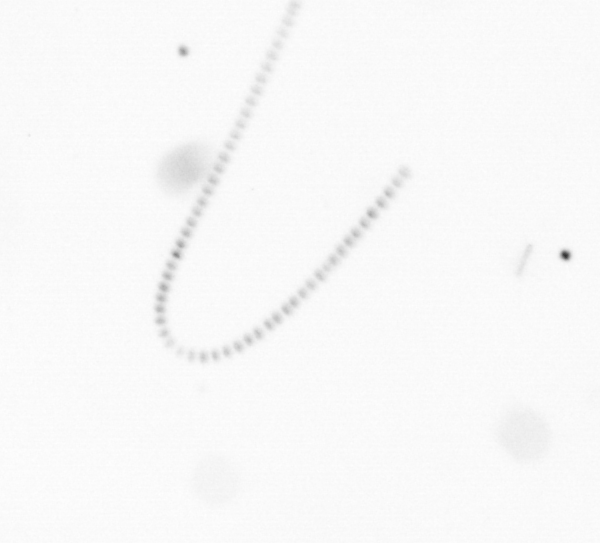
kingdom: Chromista
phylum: Ochrophyta
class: Bacillariophyceae
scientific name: Bacillariophyceae
